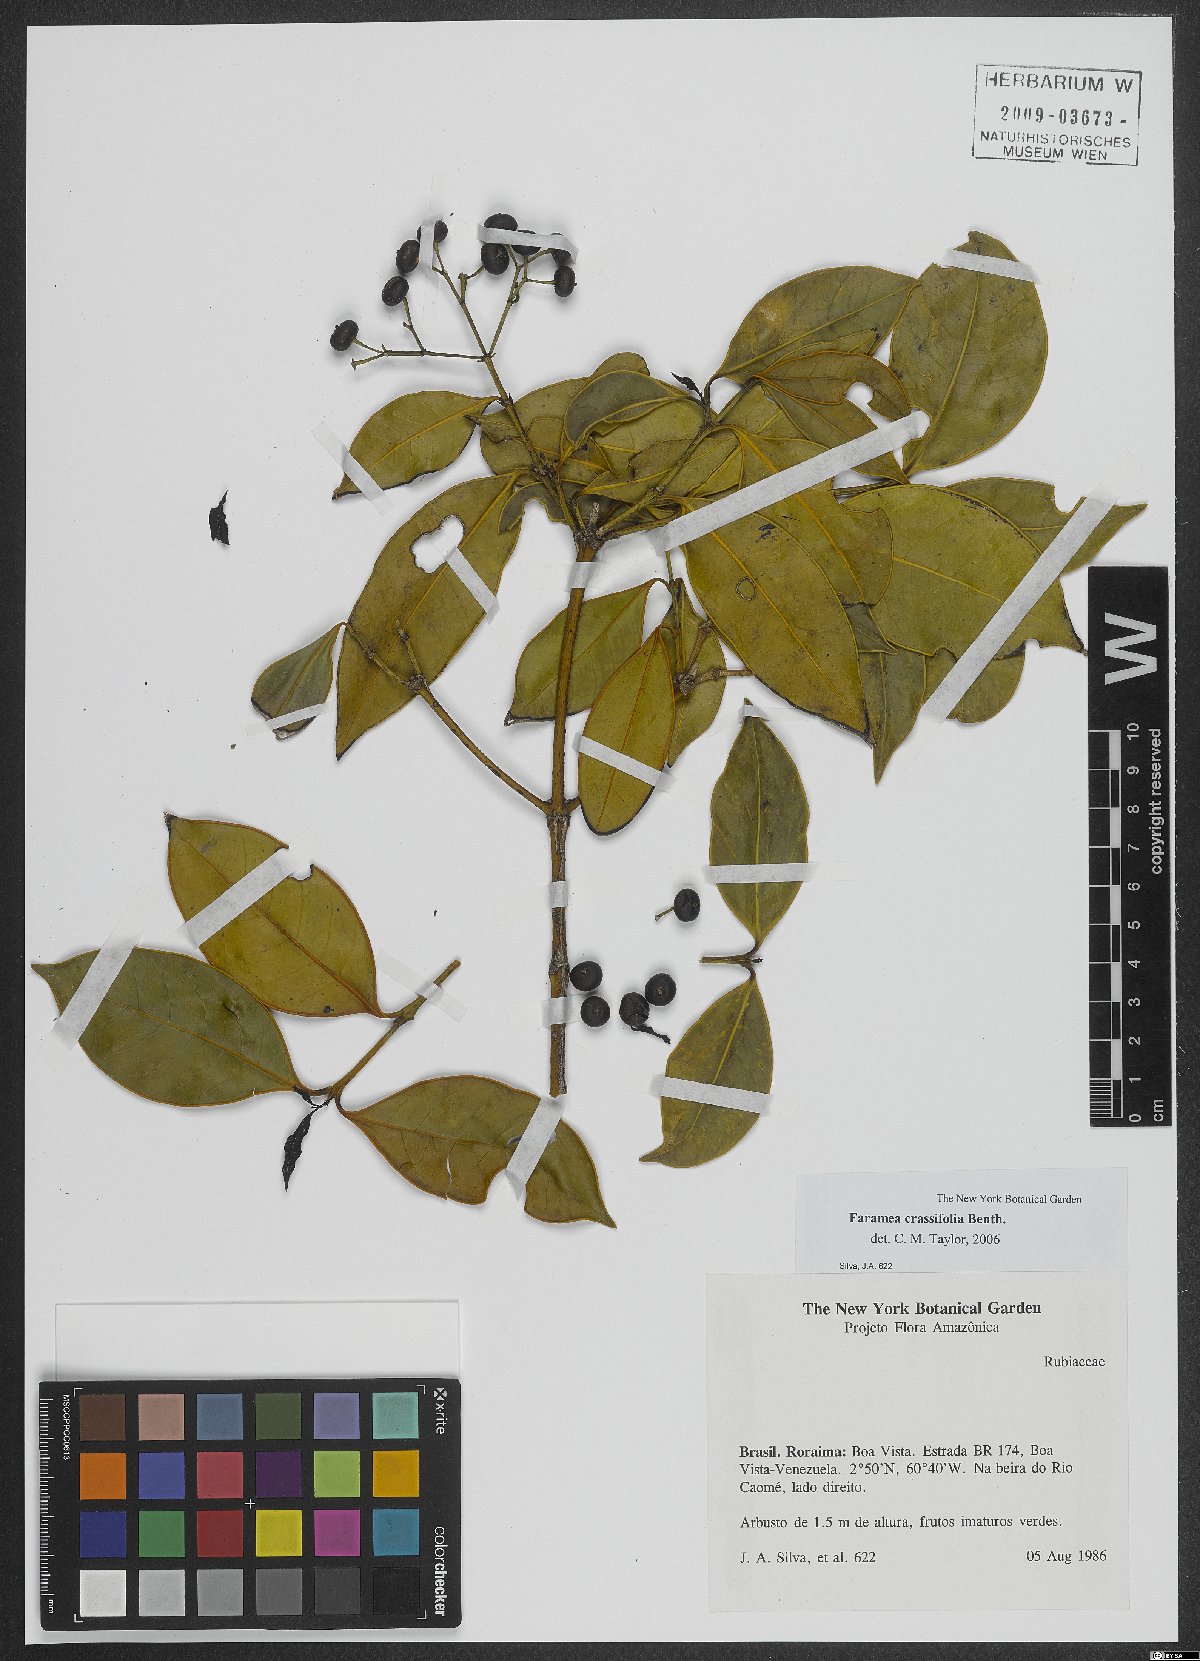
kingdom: Plantae
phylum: Tracheophyta
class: Magnoliopsida
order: Gentianales
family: Rubiaceae
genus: Faramea
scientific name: Faramea crassifolia
